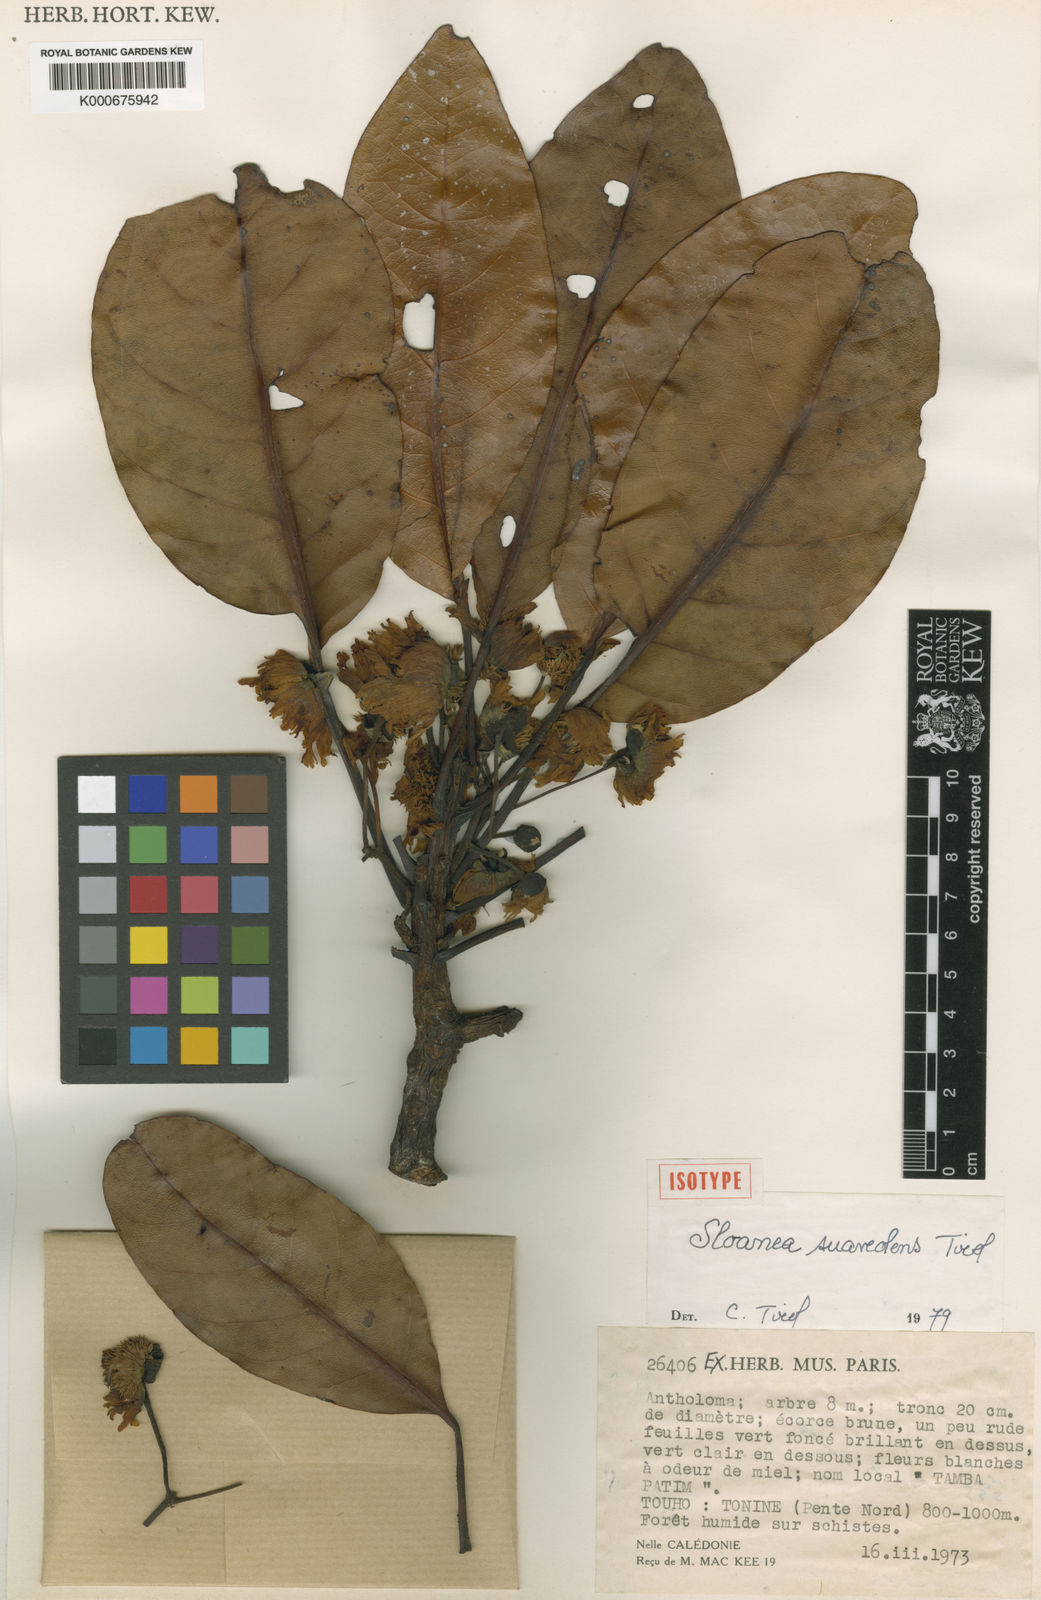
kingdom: Plantae
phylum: Tracheophyta
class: Magnoliopsida
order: Oxalidales
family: Elaeocarpaceae
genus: Sloanea
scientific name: Sloanea suaveolens
